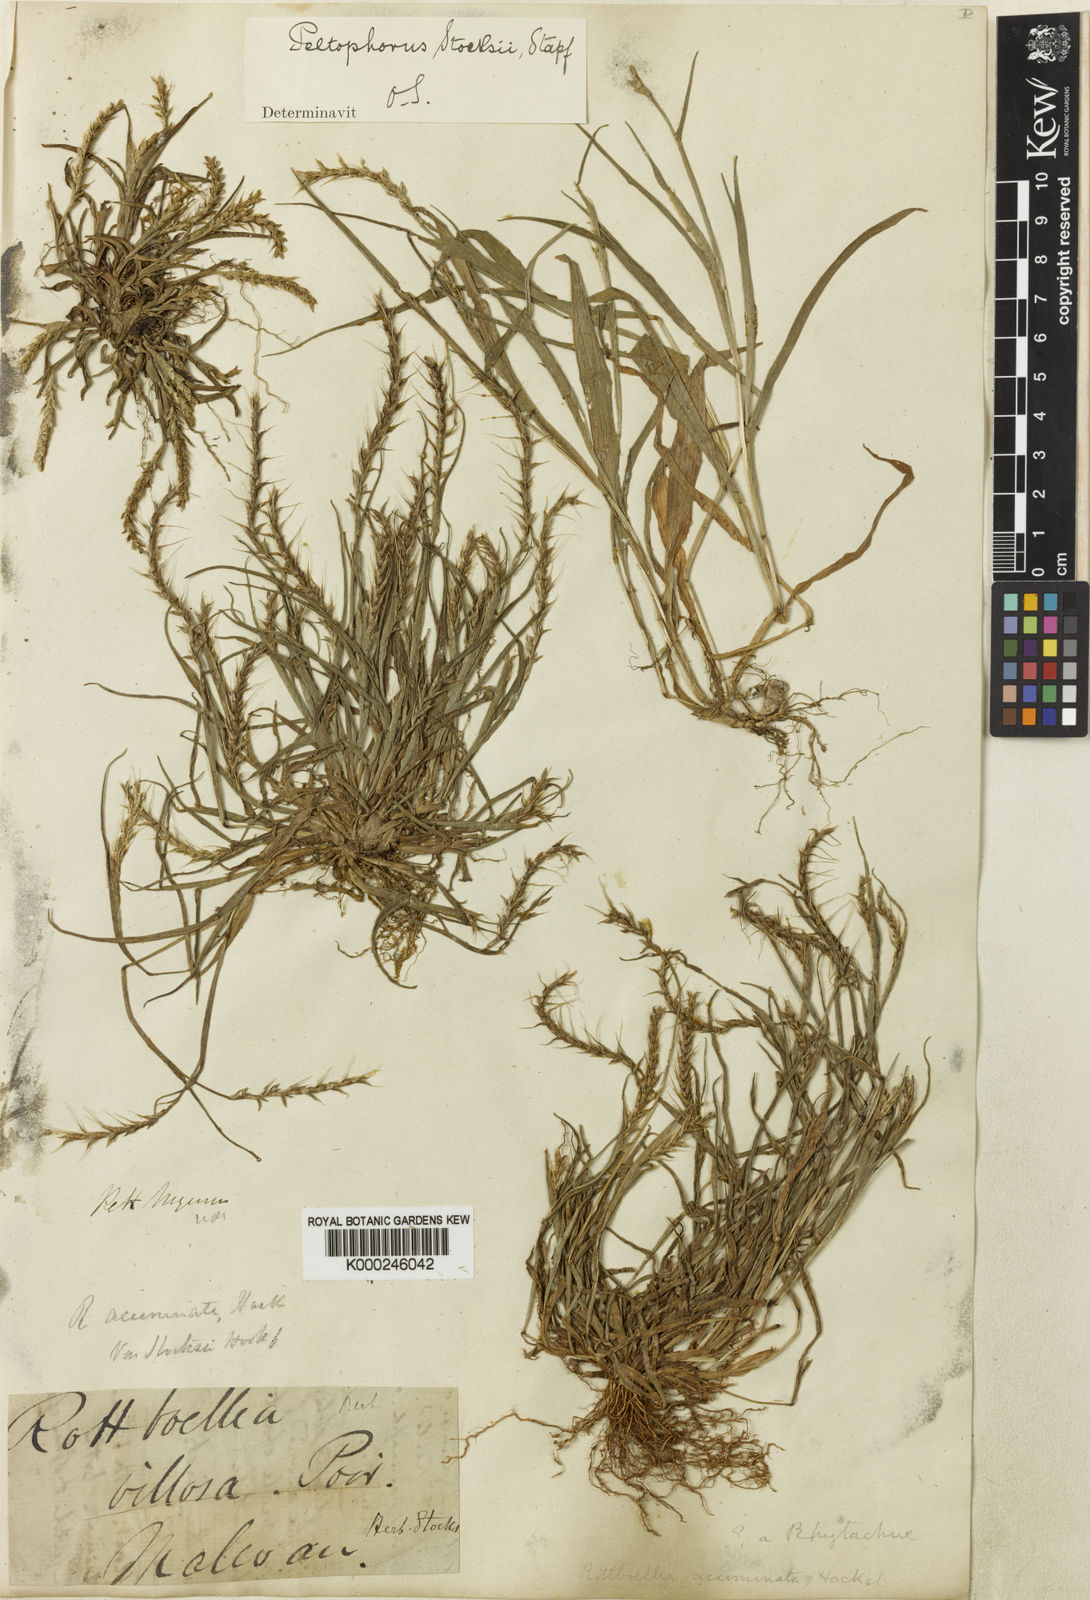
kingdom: Plantae
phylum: Tracheophyta
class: Liliopsida
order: Poales
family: Poaceae
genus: Glyphochloa
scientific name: Glyphochloa acuminata
